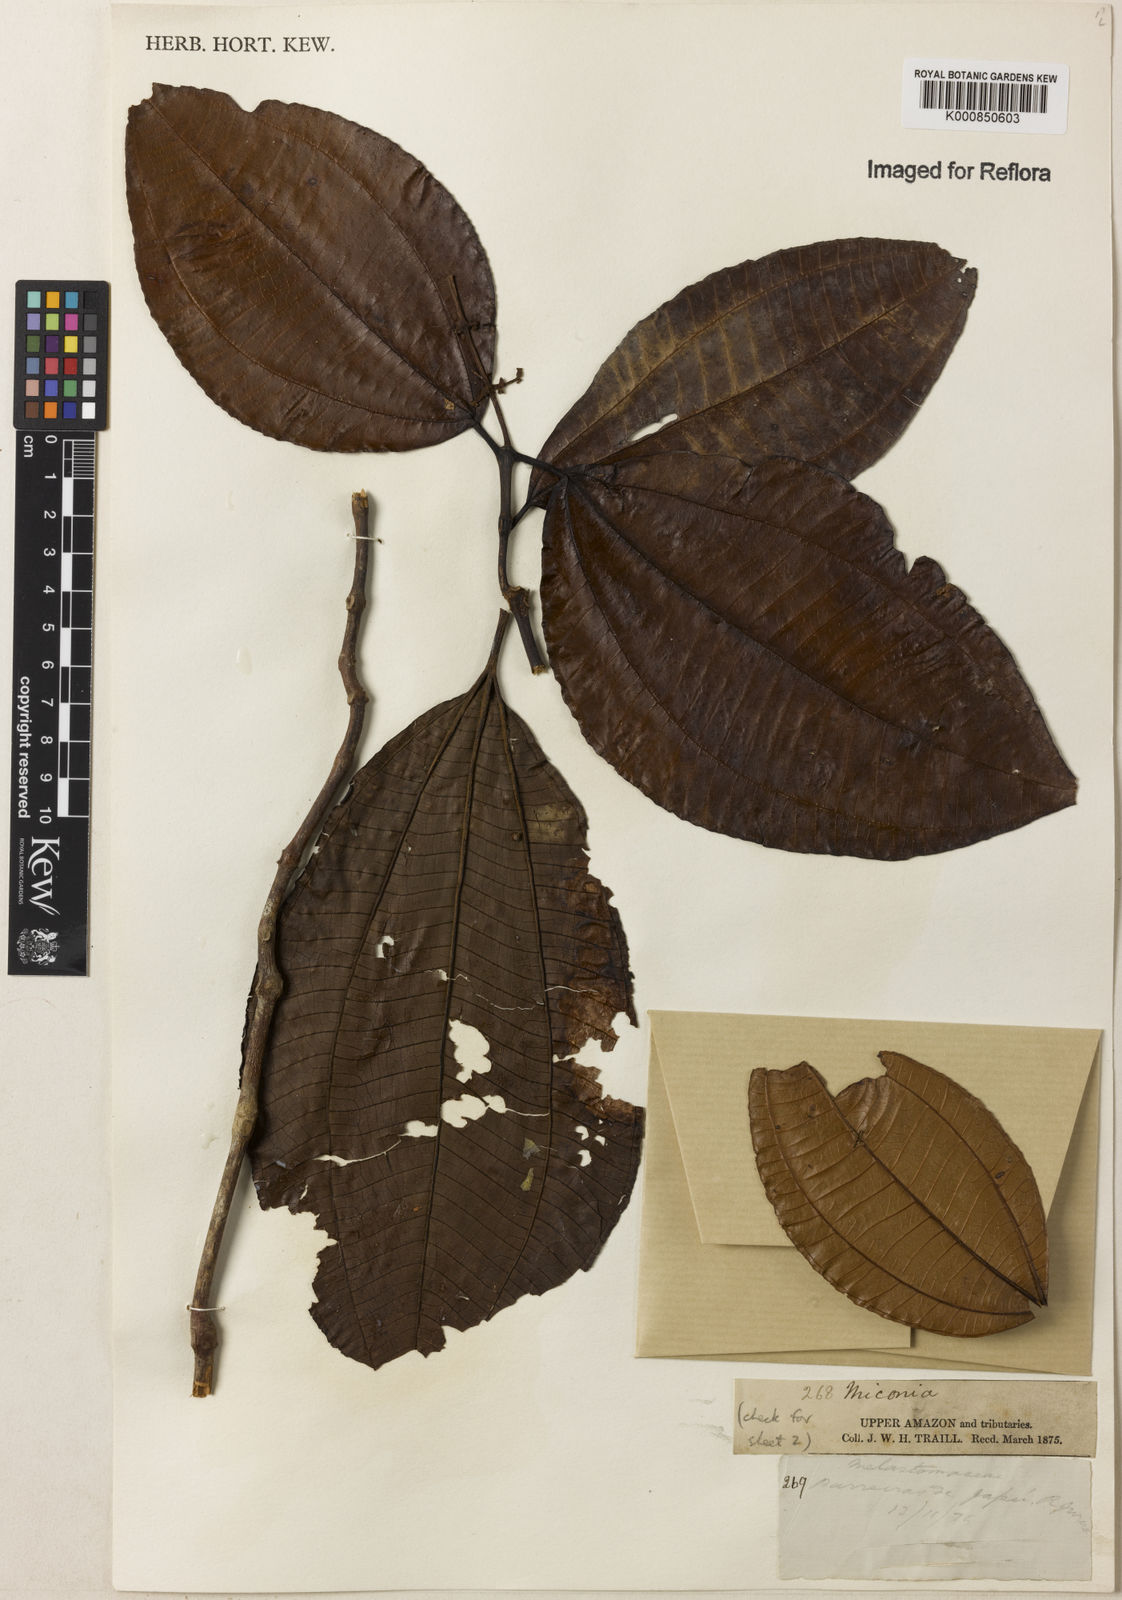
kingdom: Plantae
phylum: Tracheophyta
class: Magnoliopsida
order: Myrtales
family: Melastomataceae
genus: Miconia
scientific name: Miconia
